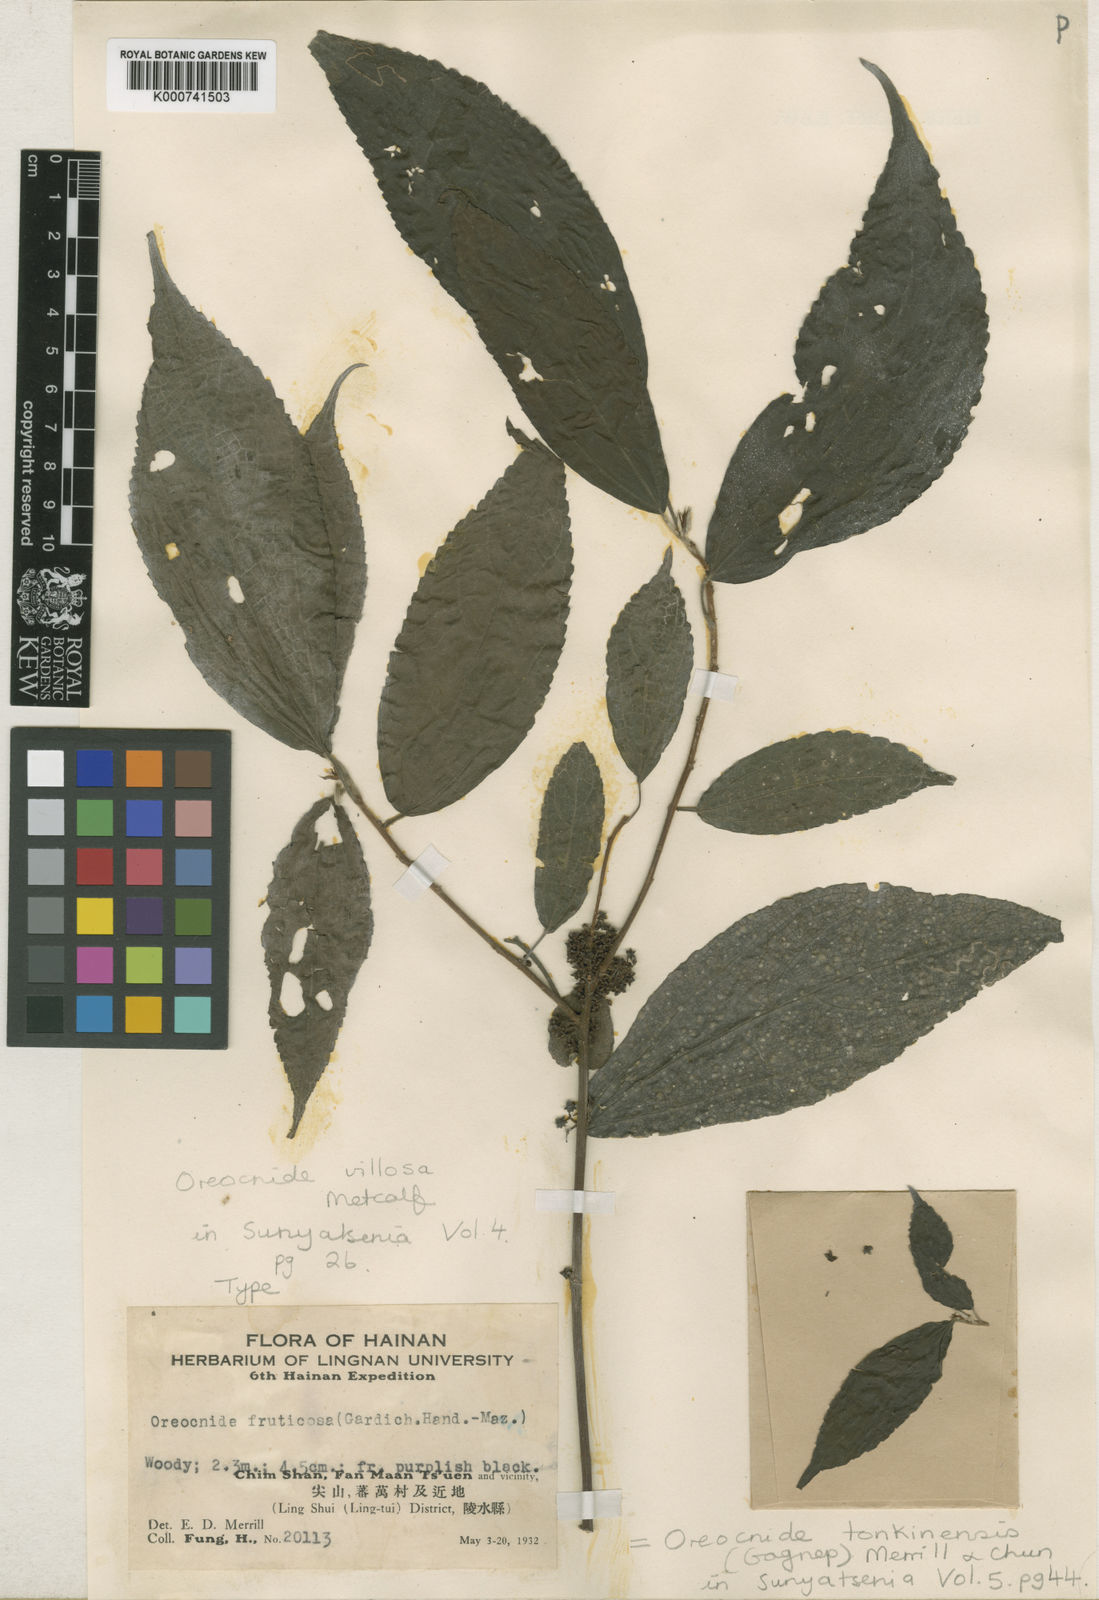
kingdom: Plantae
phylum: Tracheophyta
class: Magnoliopsida
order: Rosales
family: Urticaceae
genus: Oreocnide
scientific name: Oreocnide tonkinensis
